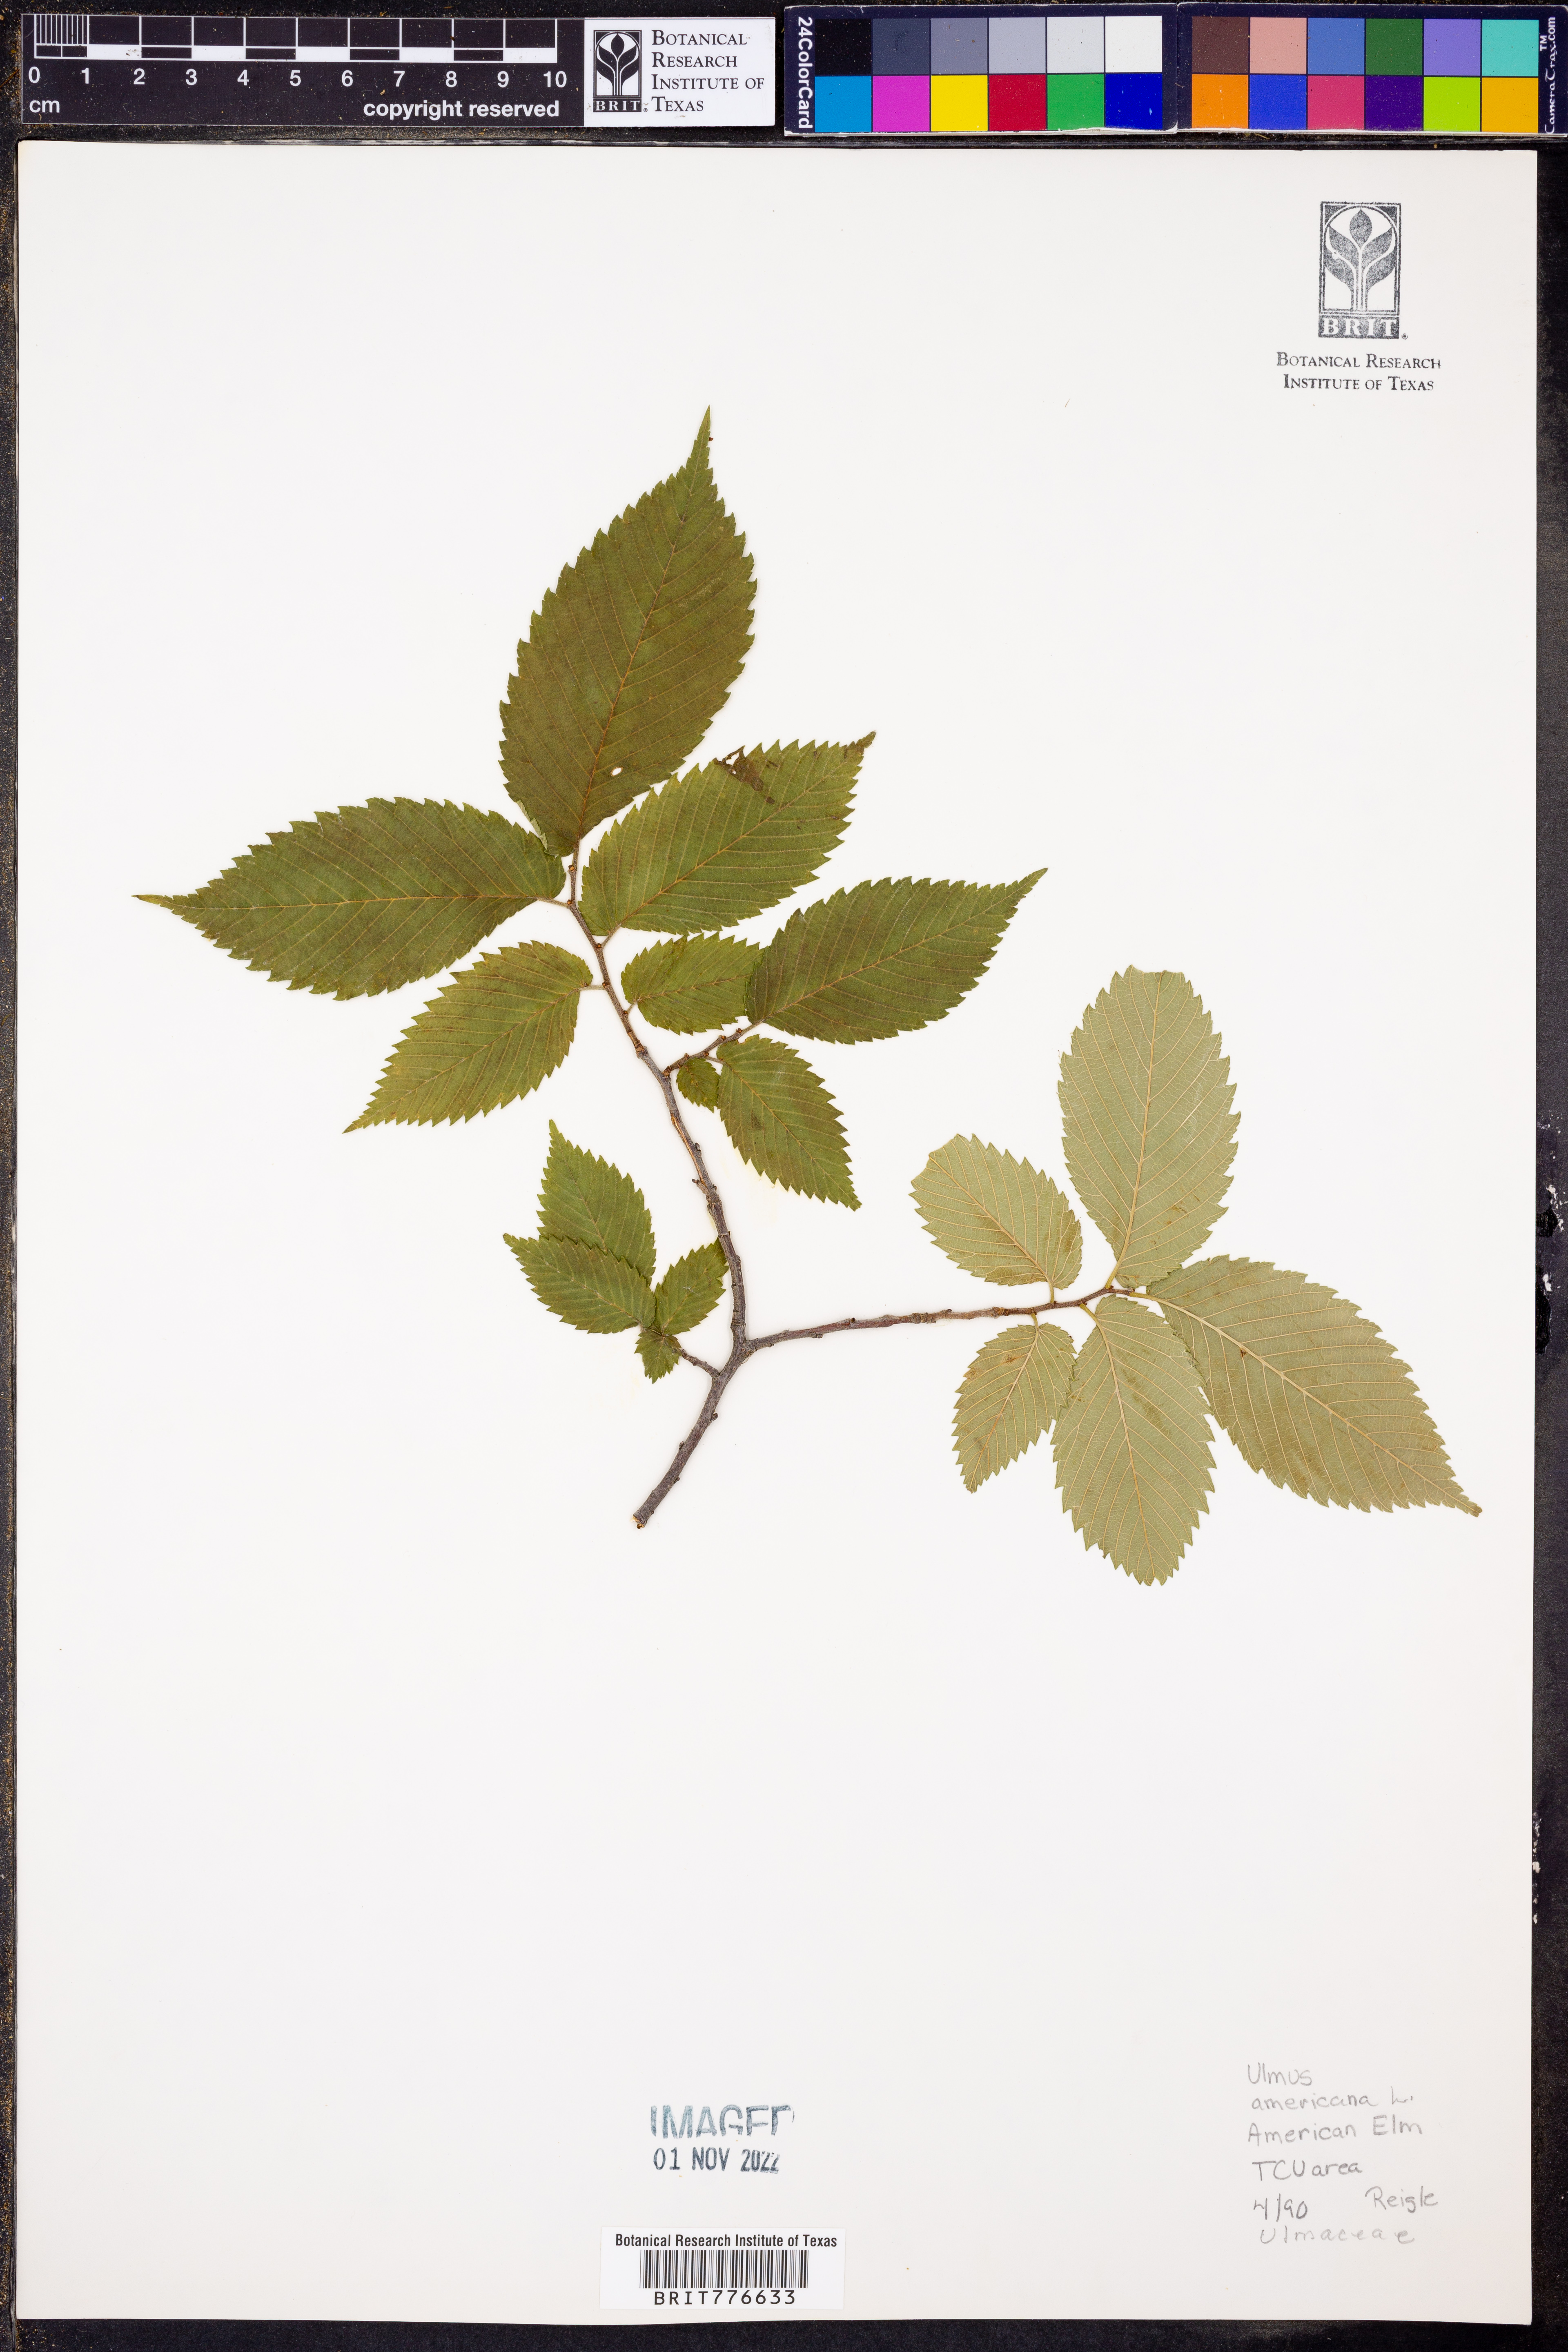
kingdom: Plantae
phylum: Tracheophyta
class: Magnoliopsida
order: Rosales
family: Ulmaceae
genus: Ulmus
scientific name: Ulmus americana
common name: American elm
